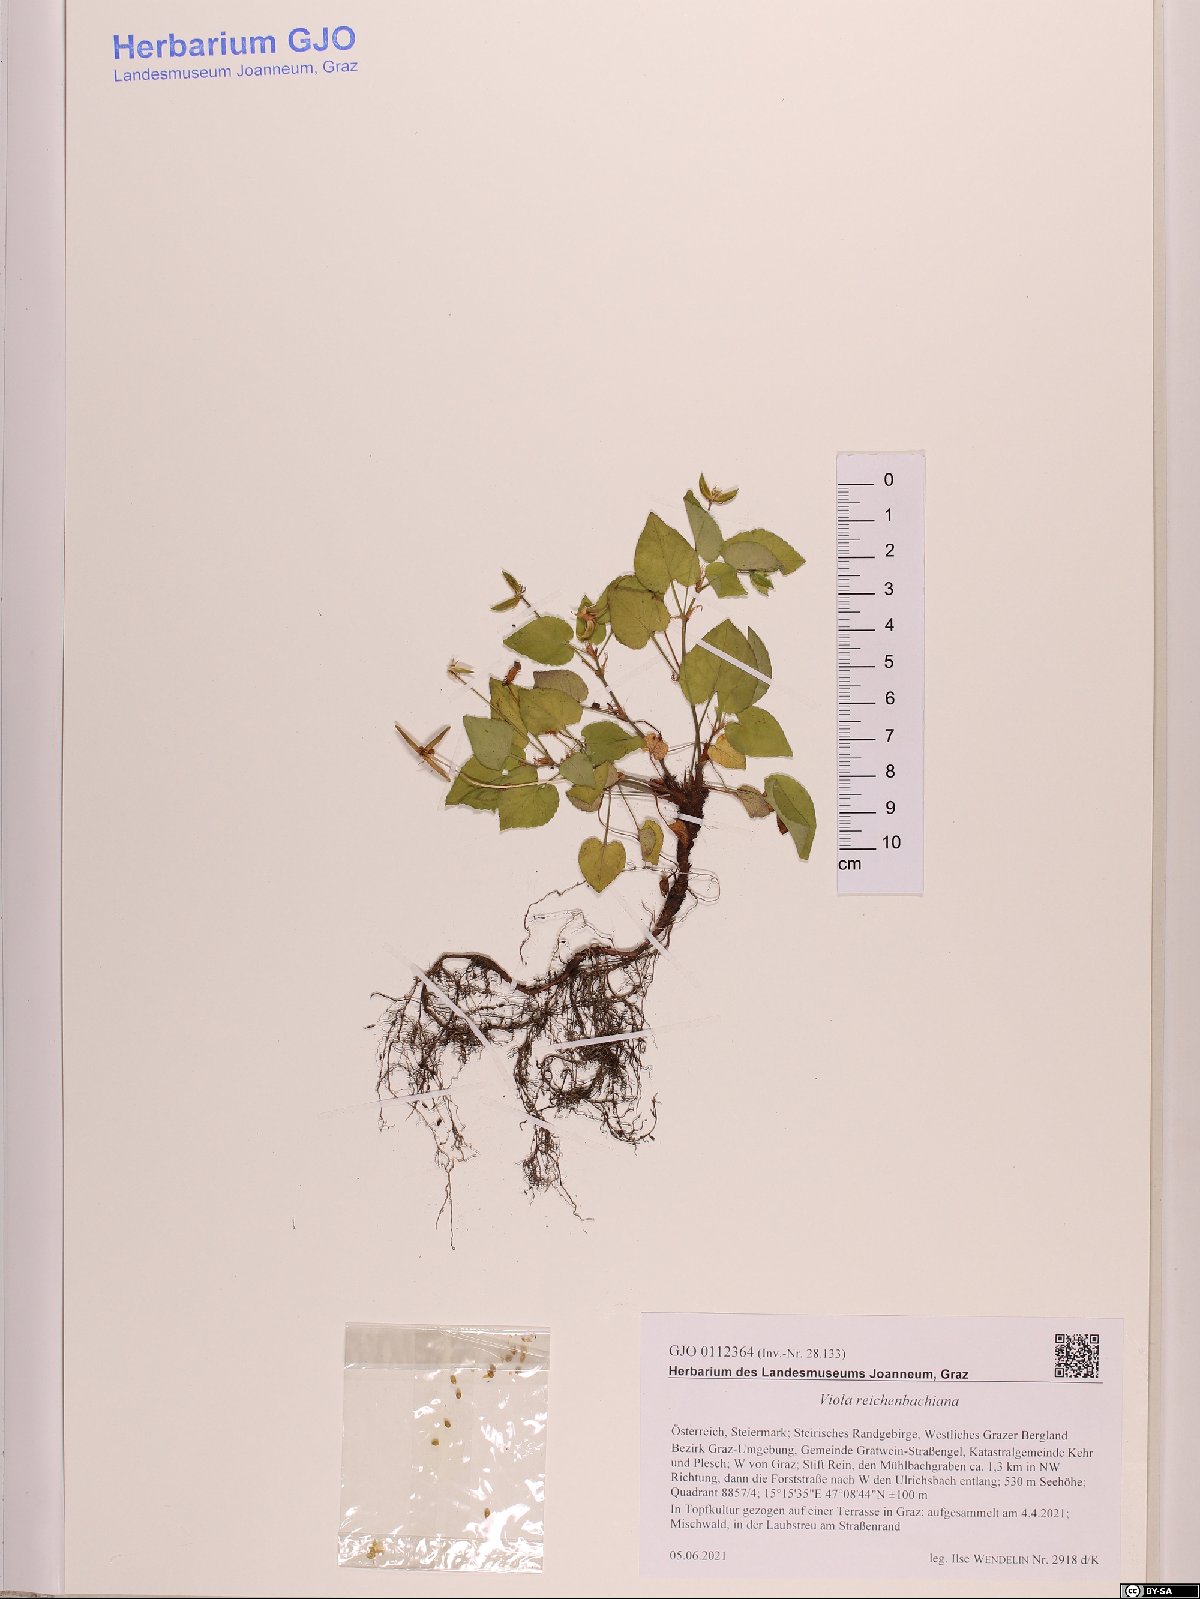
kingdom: Plantae
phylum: Tracheophyta
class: Magnoliopsida
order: Malpighiales
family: Violaceae
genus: Viola
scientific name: Viola reichenbachiana
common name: Early dog-violet
